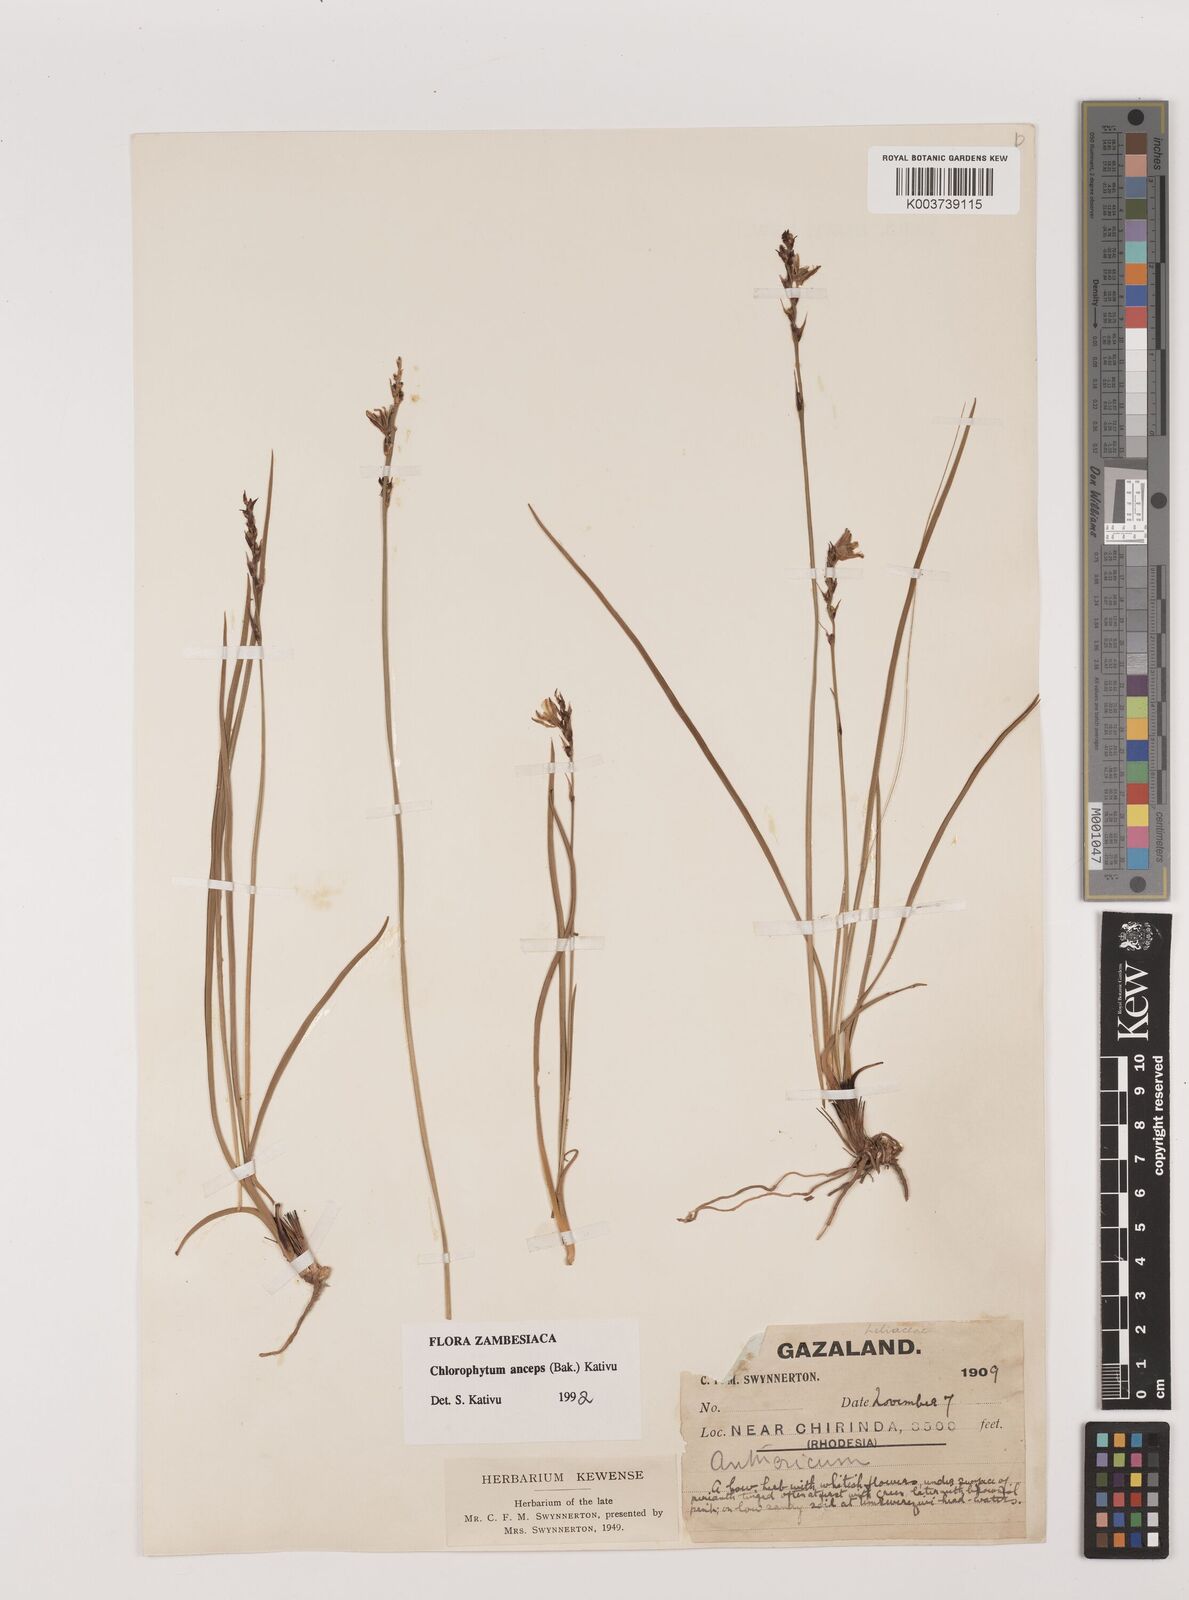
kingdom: Plantae
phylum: Tracheophyta
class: Liliopsida
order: Asparagales
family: Asparagaceae
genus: Chlorophytum
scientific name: Chlorophytum anceps
